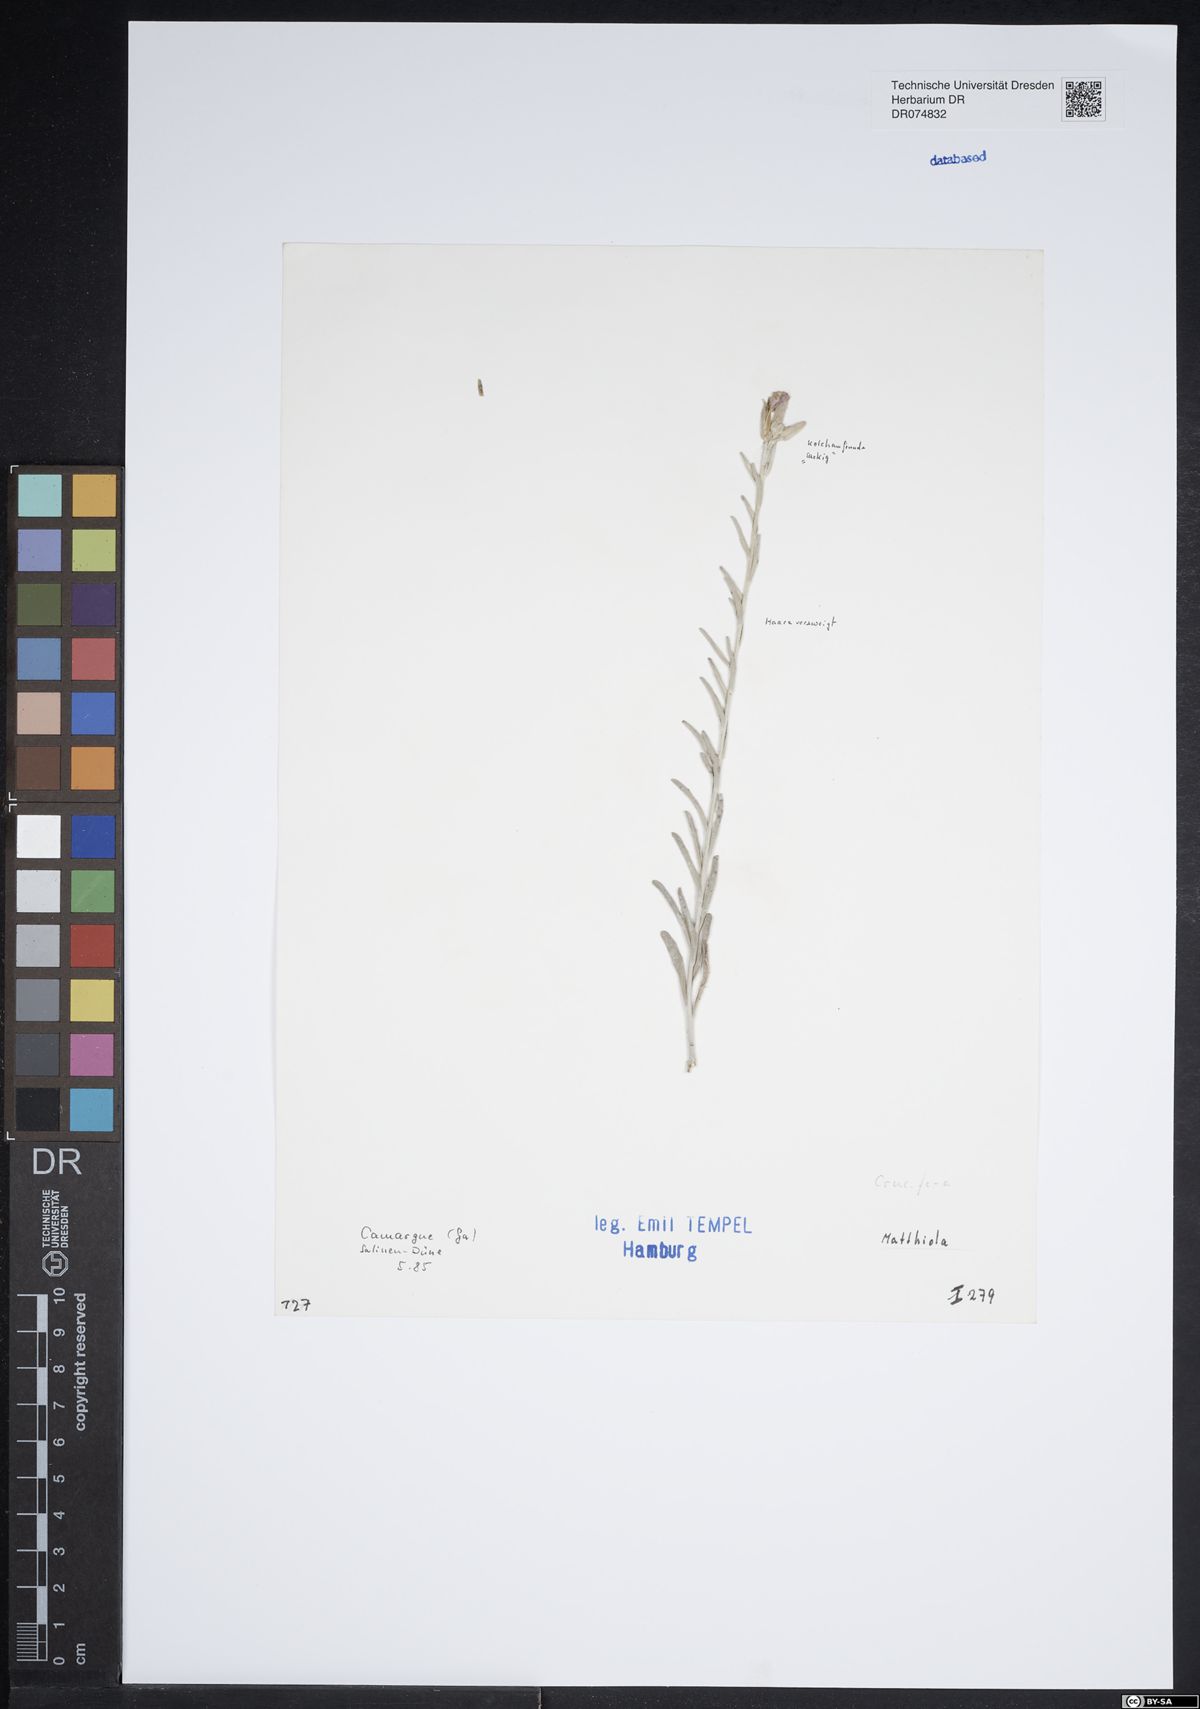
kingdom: Plantae
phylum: Tracheophyta
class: Magnoliopsida
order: Brassicales
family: Brassicaceae
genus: Matthiola
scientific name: Matthiola
